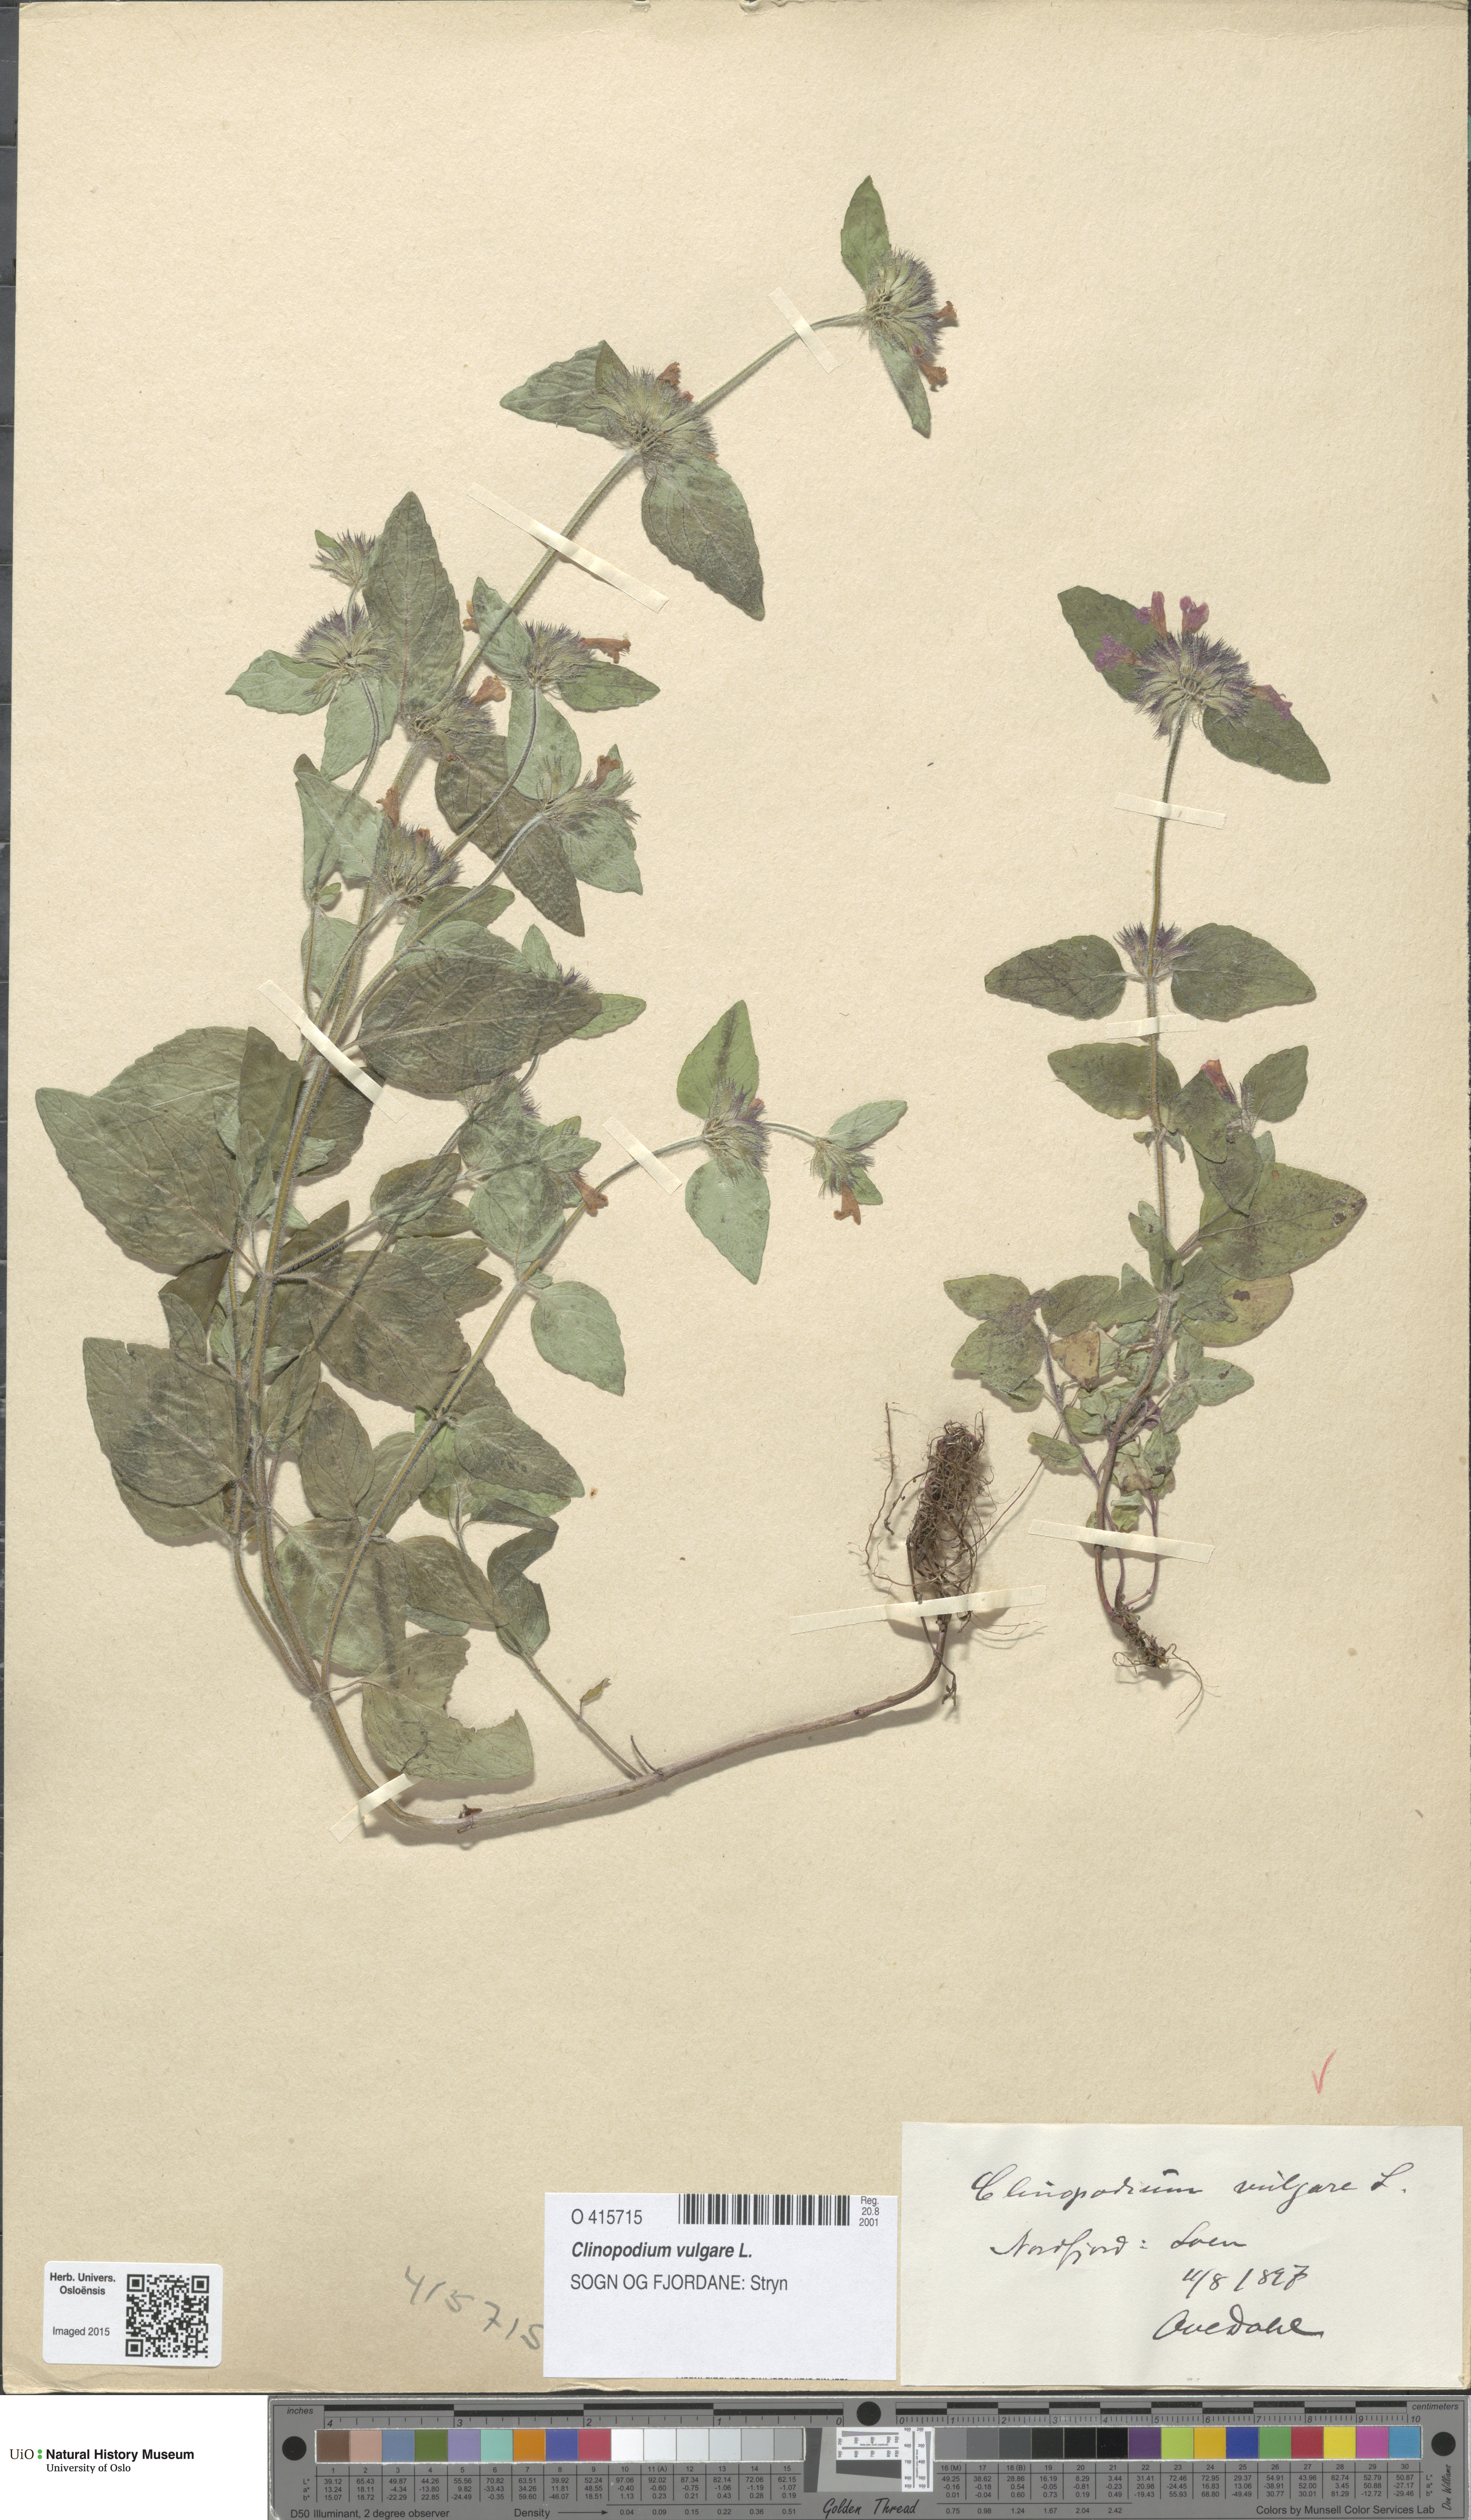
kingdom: Plantae
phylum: Tracheophyta
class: Magnoliopsida
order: Lamiales
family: Lamiaceae
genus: Clinopodium
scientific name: Clinopodium vulgare
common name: Wild basil
